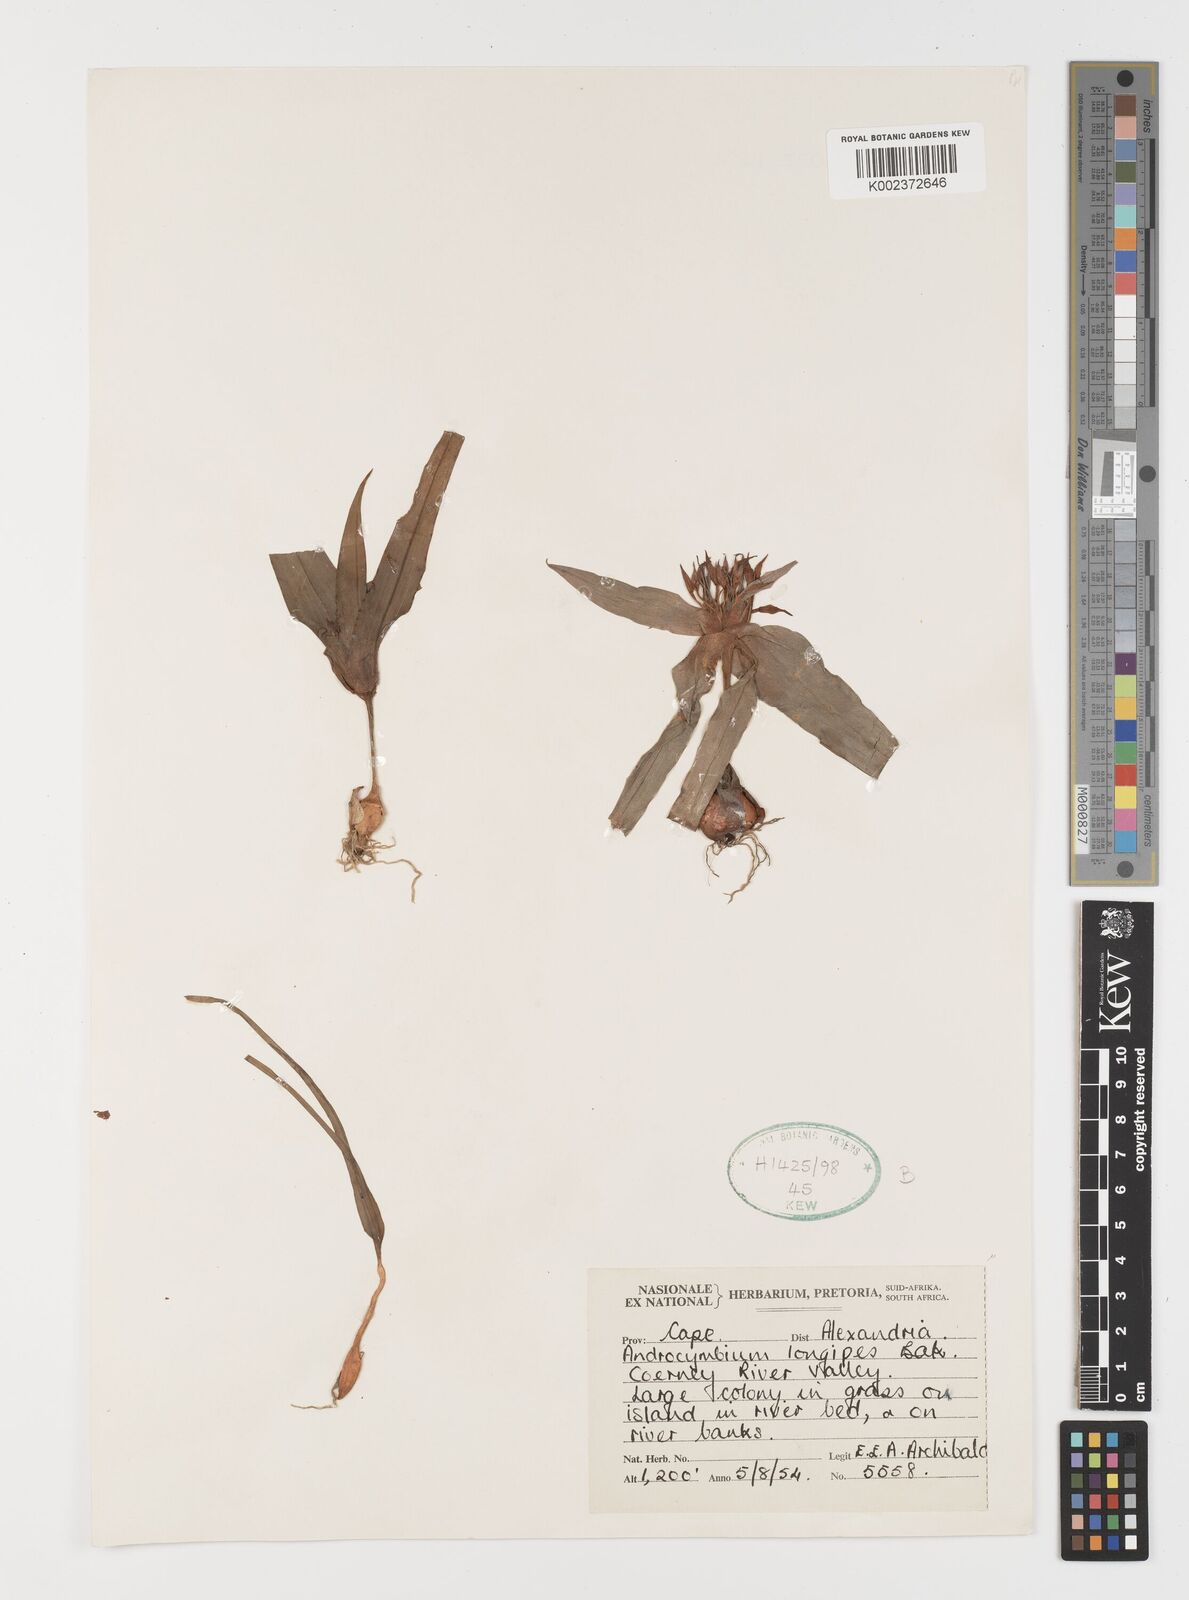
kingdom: Plantae
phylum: Tracheophyta
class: Liliopsida
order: Liliales
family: Colchicaceae
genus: Colchicum
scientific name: Colchicum longipes
